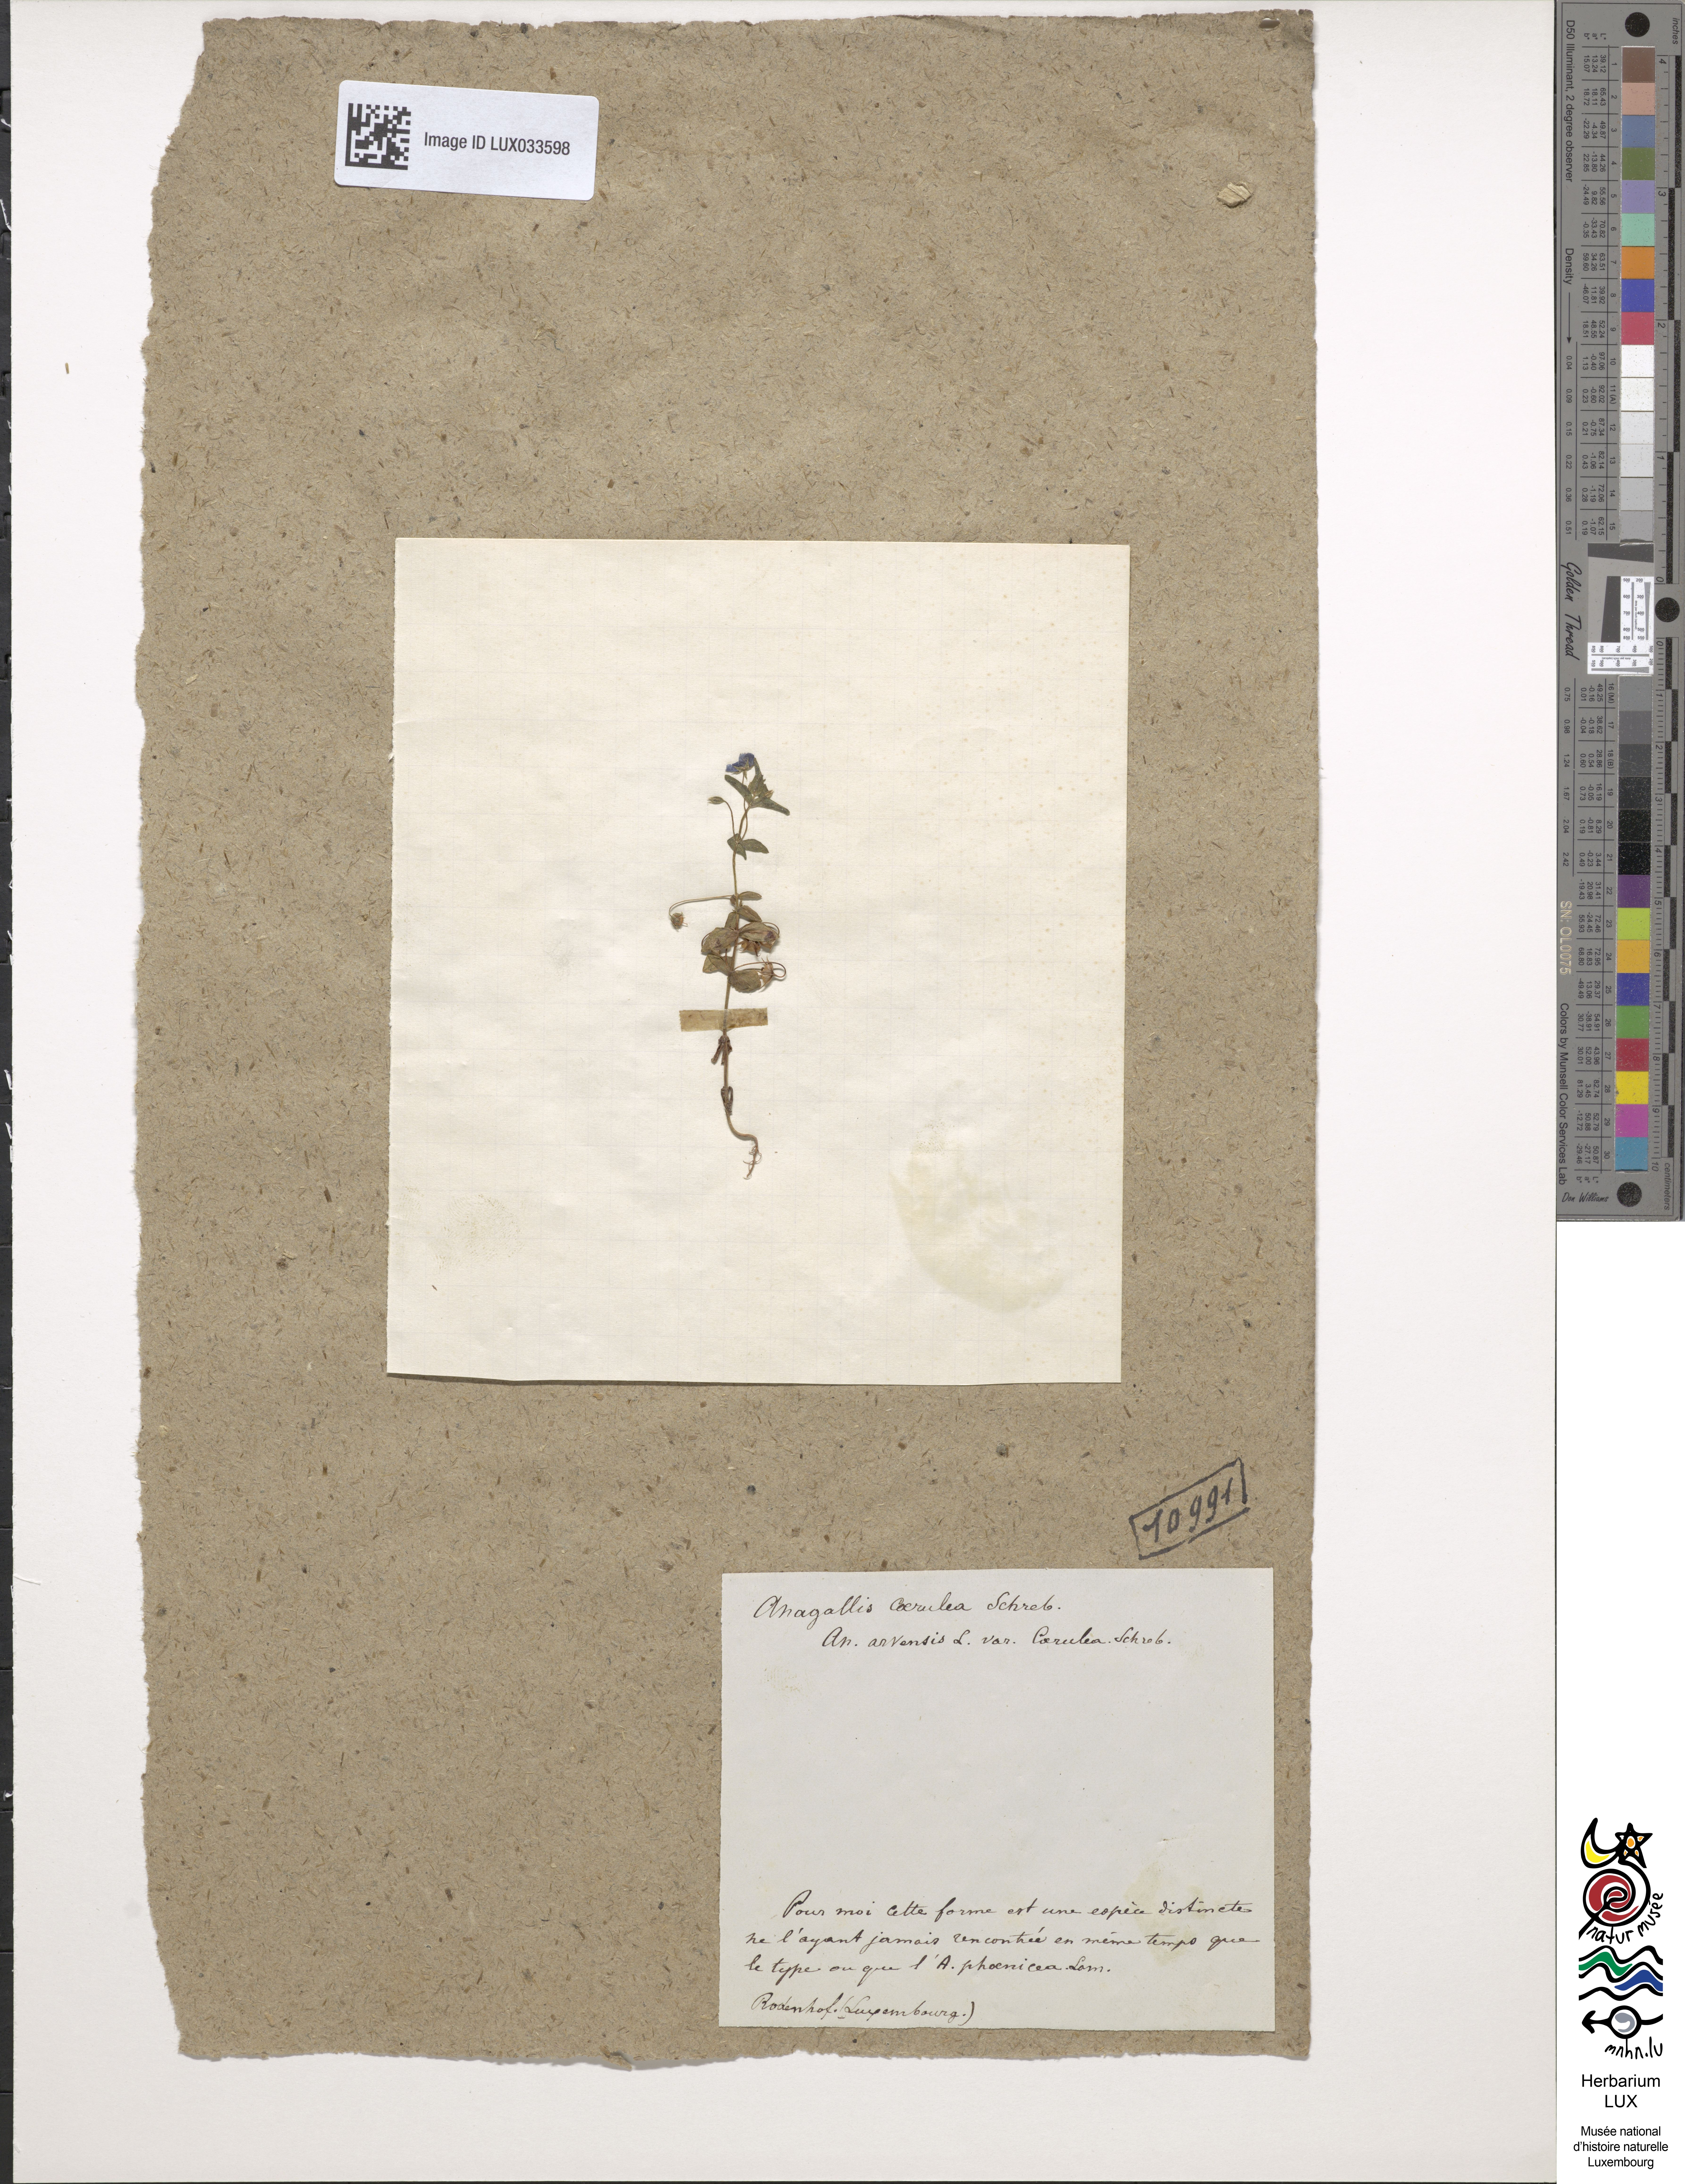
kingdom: Plantae
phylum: Tracheophyta
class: Magnoliopsida
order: Ericales
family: Primulaceae
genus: Lysimachia
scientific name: Lysimachia foemina
